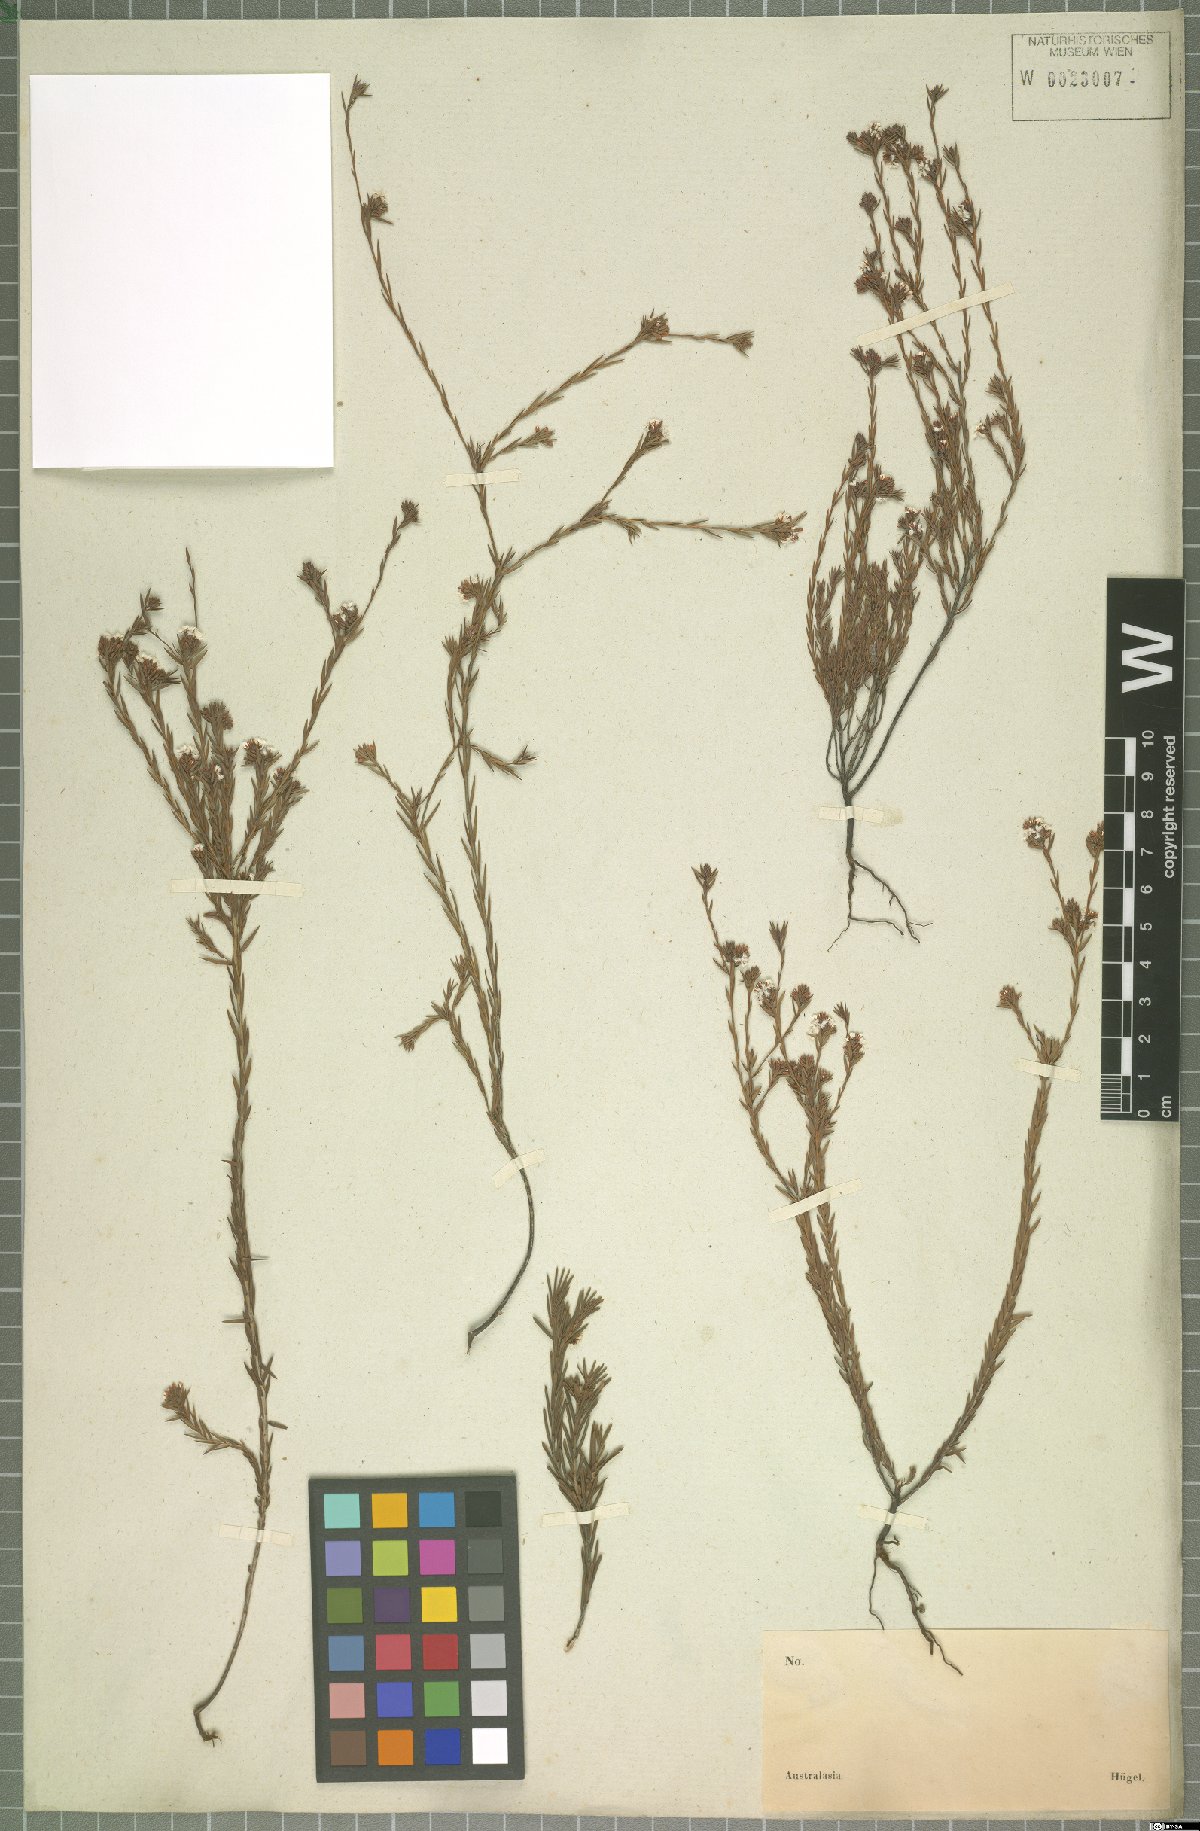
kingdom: Plantae
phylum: Tracheophyta
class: Magnoliopsida
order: Ericales
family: Ericaceae
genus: Styphelia
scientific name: Styphelia
